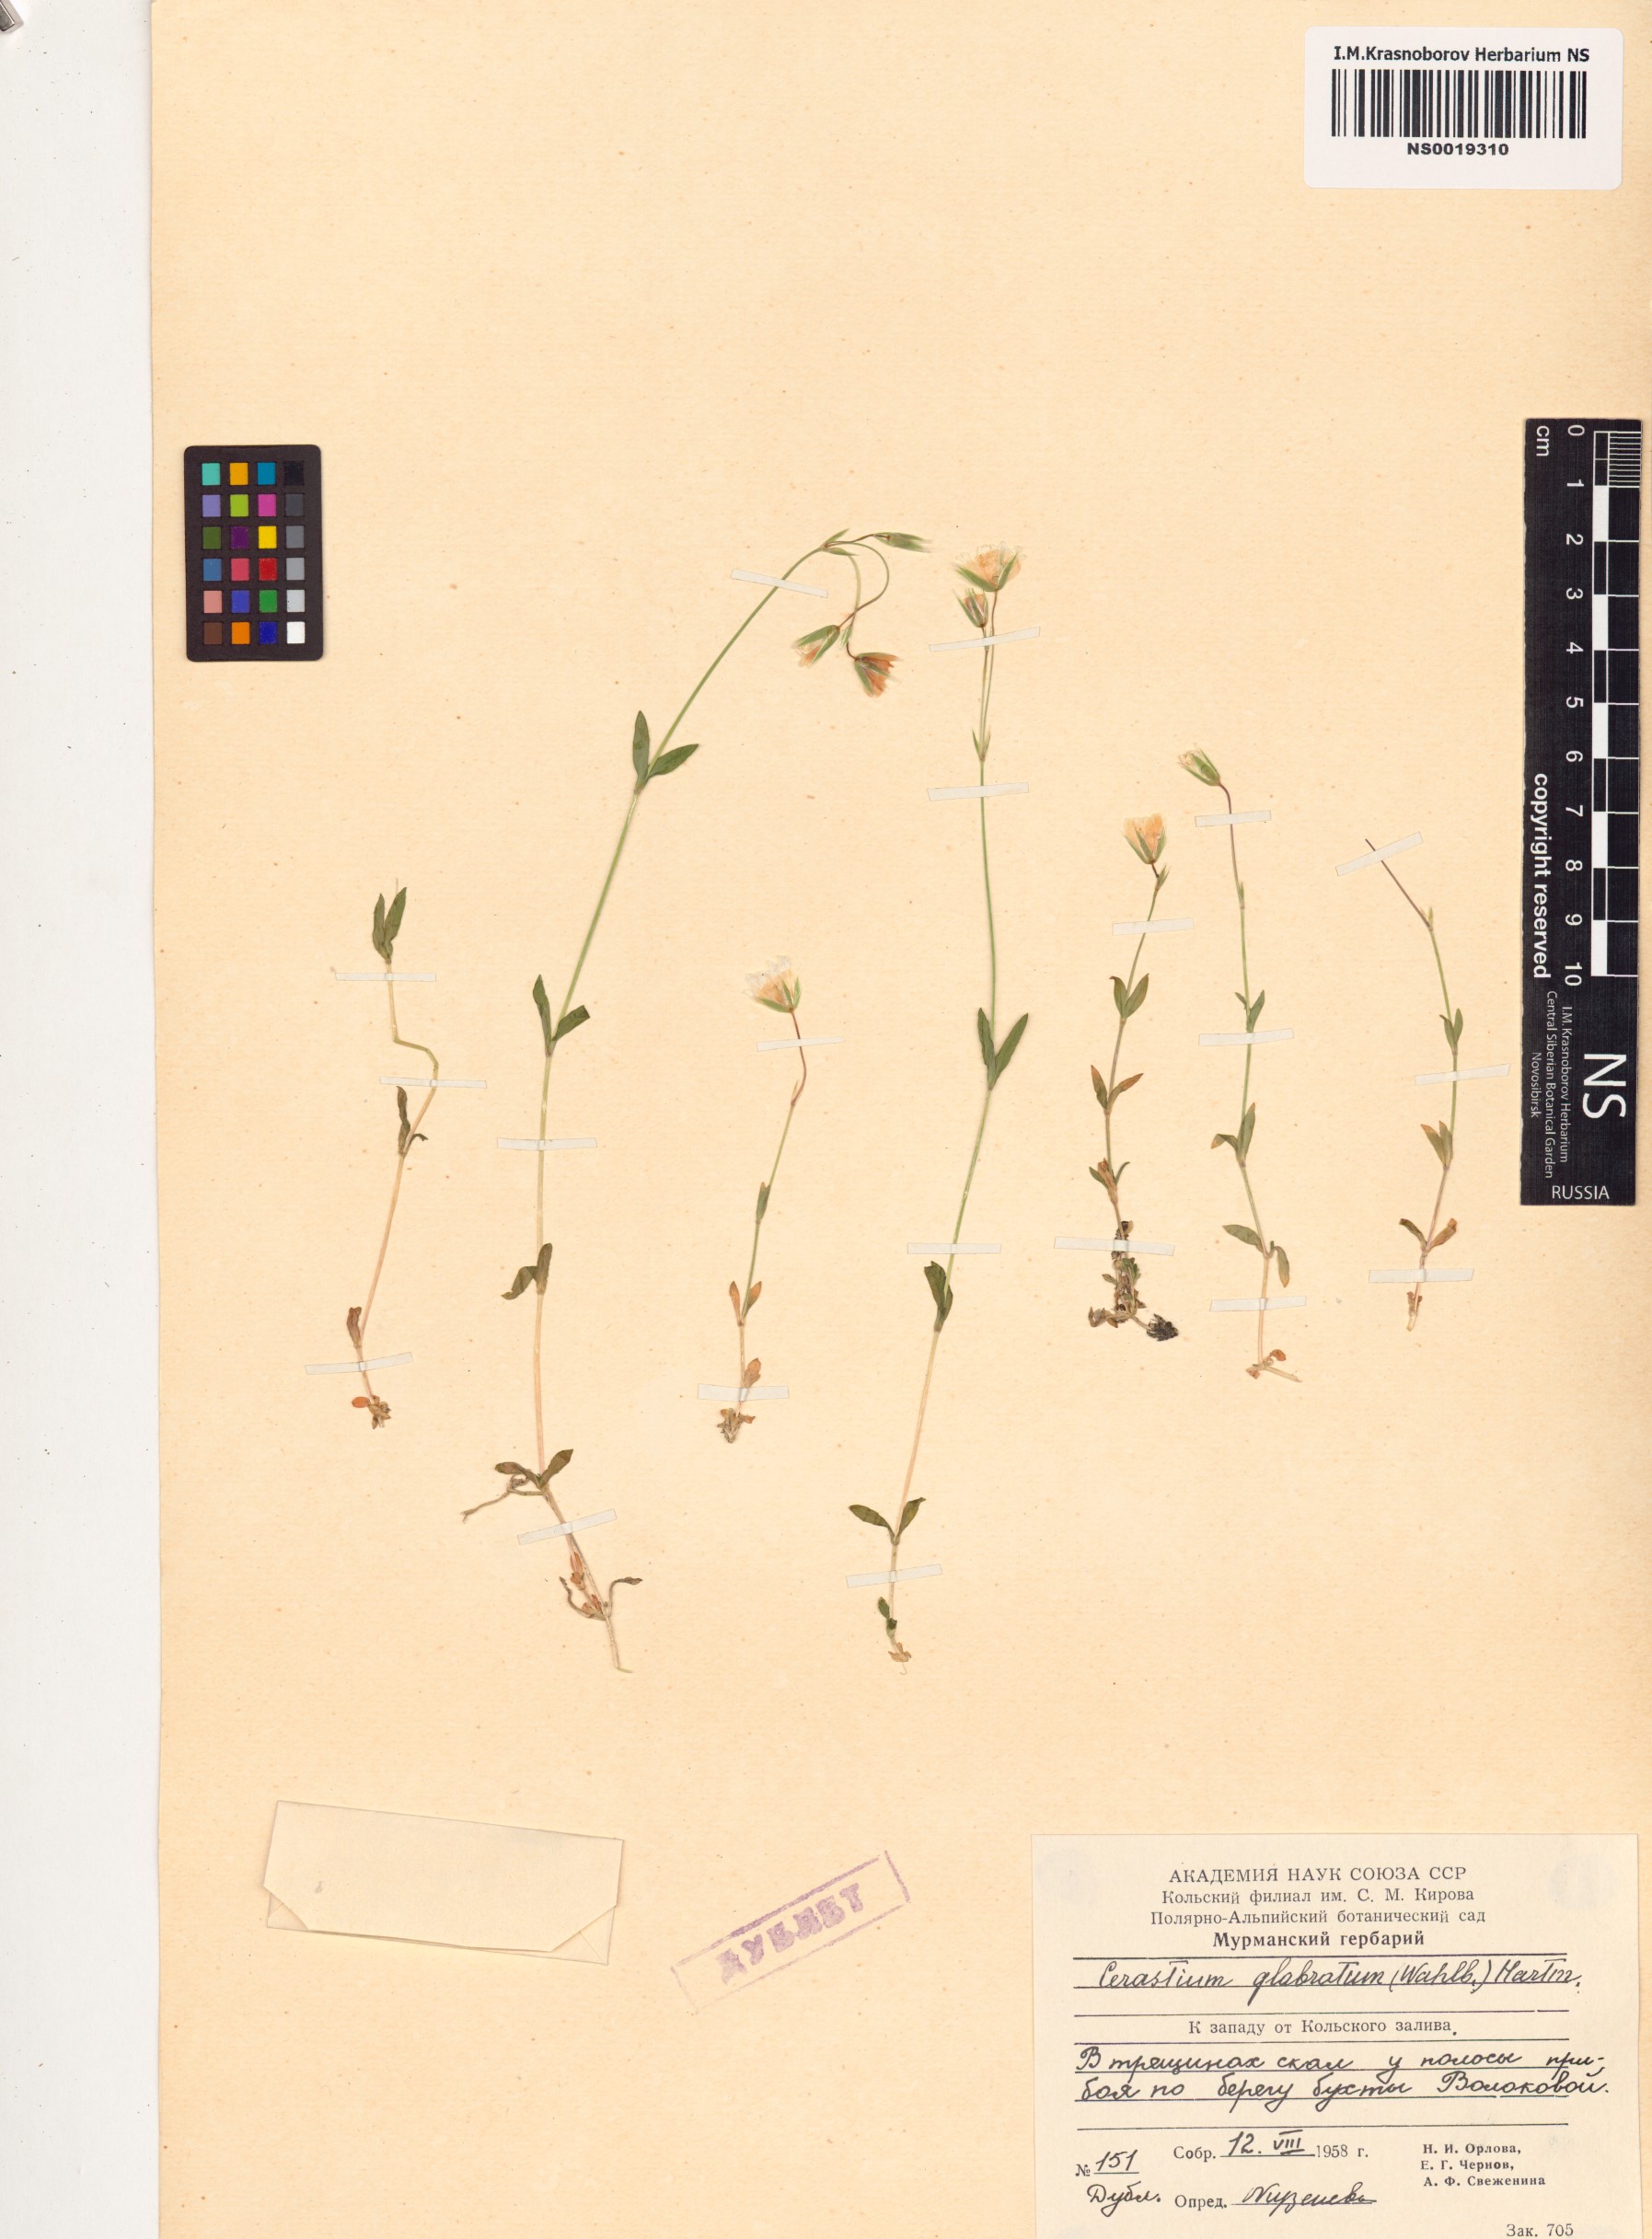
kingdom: Plantae
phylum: Tracheophyta
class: Magnoliopsida
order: Caryophyllales
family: Caryophyllaceae
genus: Cerastium
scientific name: Cerastium alpinum
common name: Alpine mouse-ear
